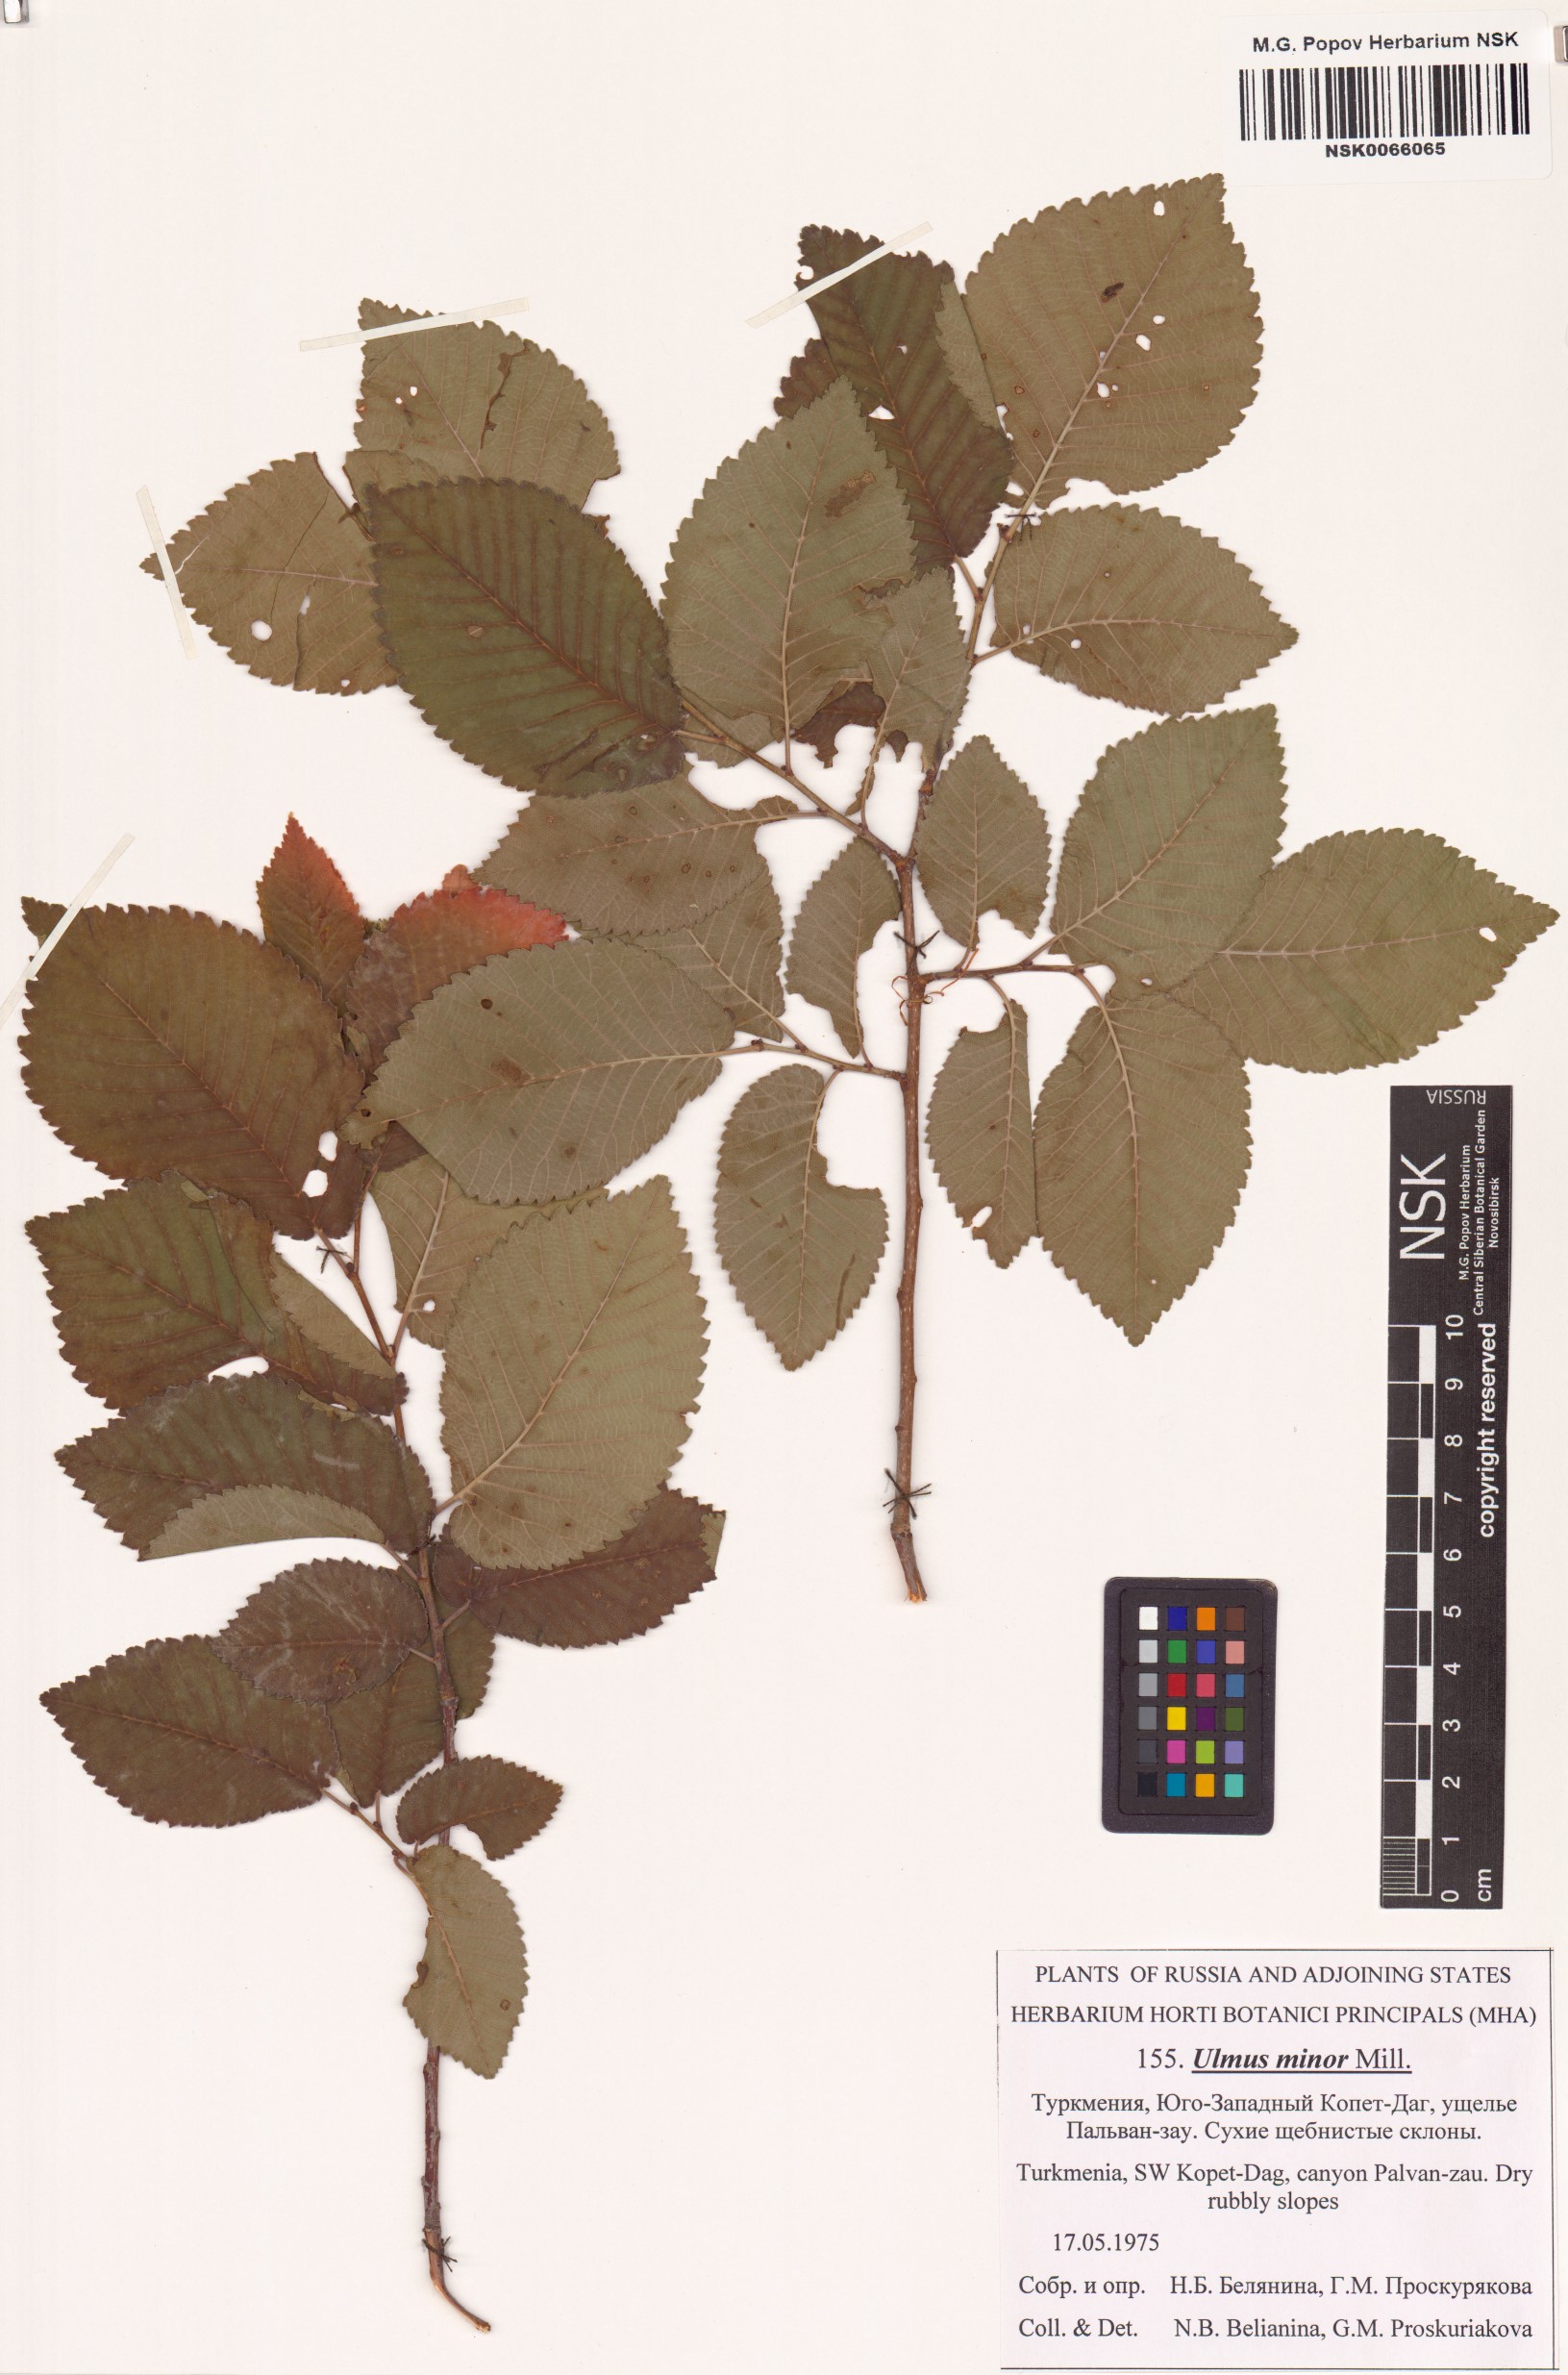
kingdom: Plantae
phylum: Tracheophyta
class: Magnoliopsida
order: Rosales
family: Ulmaceae
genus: Ulmus
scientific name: Ulmus minor
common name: Small-leaved elm
